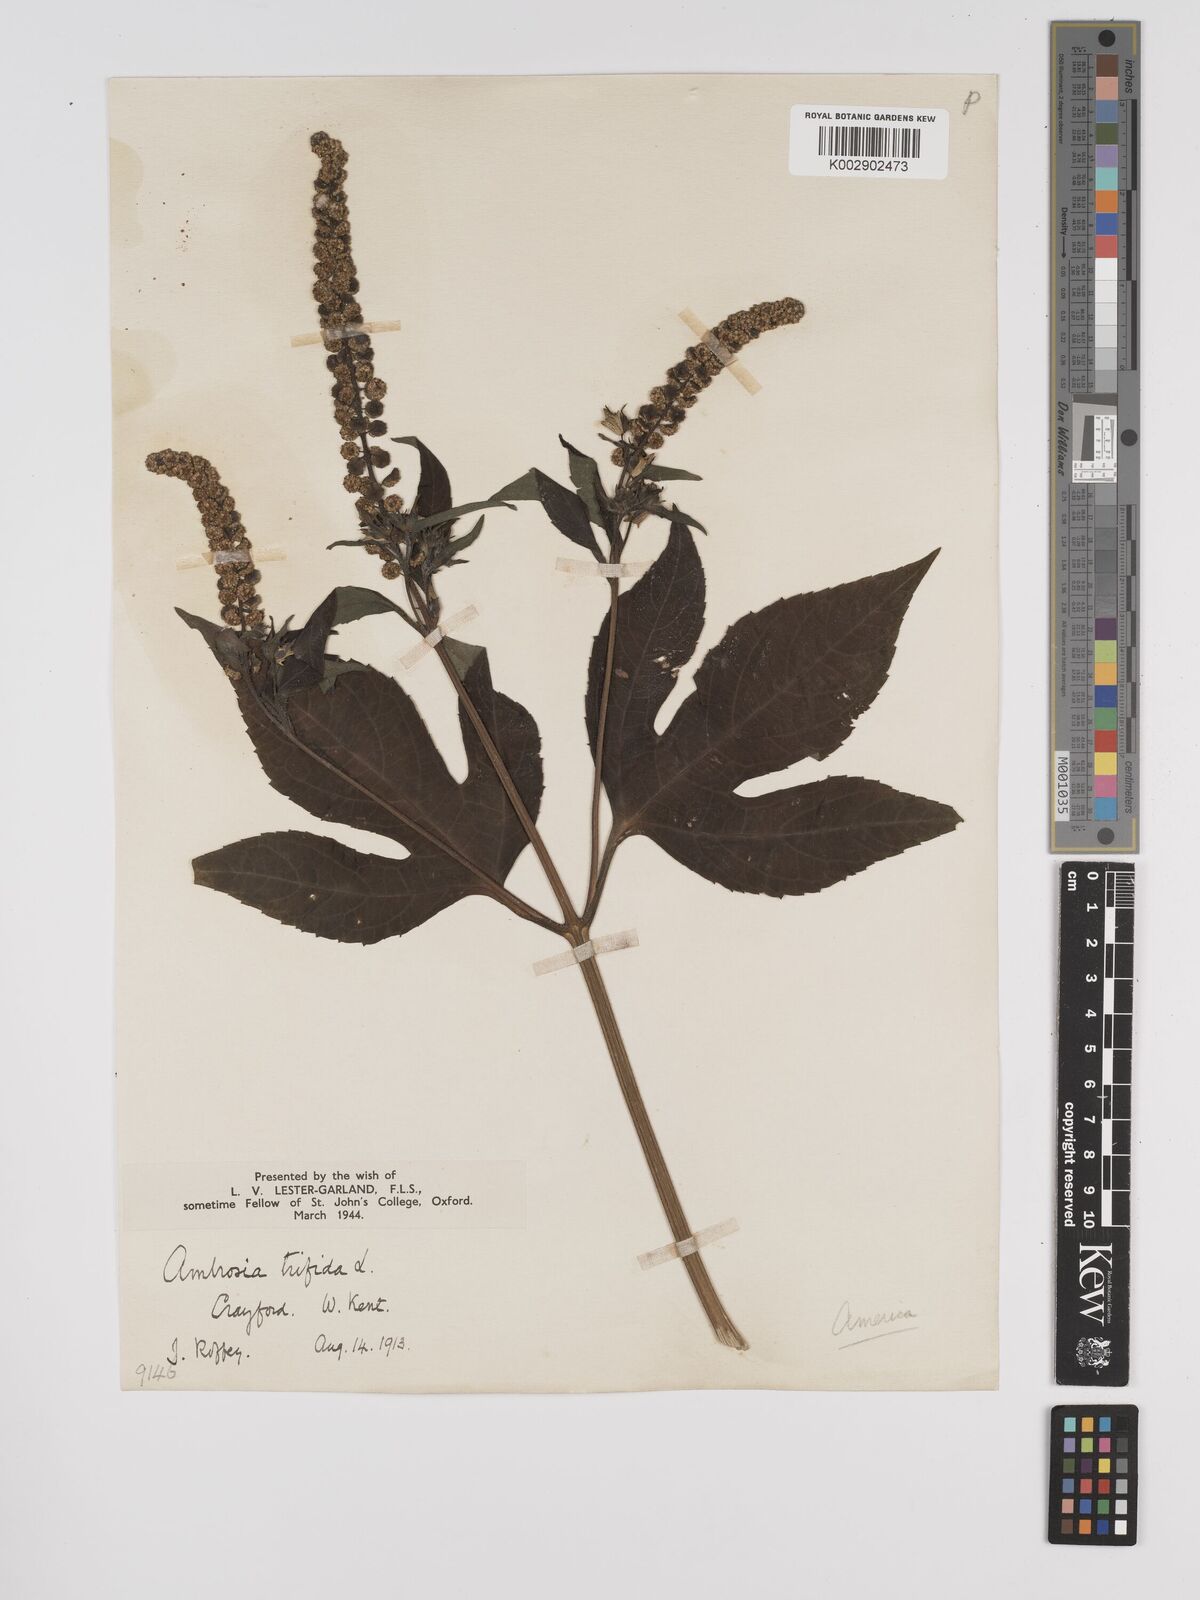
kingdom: Plantae
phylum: Tracheophyta
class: Magnoliopsida
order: Asterales
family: Asteraceae
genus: Ambrosia
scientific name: Ambrosia trifida
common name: Giant ragweed
